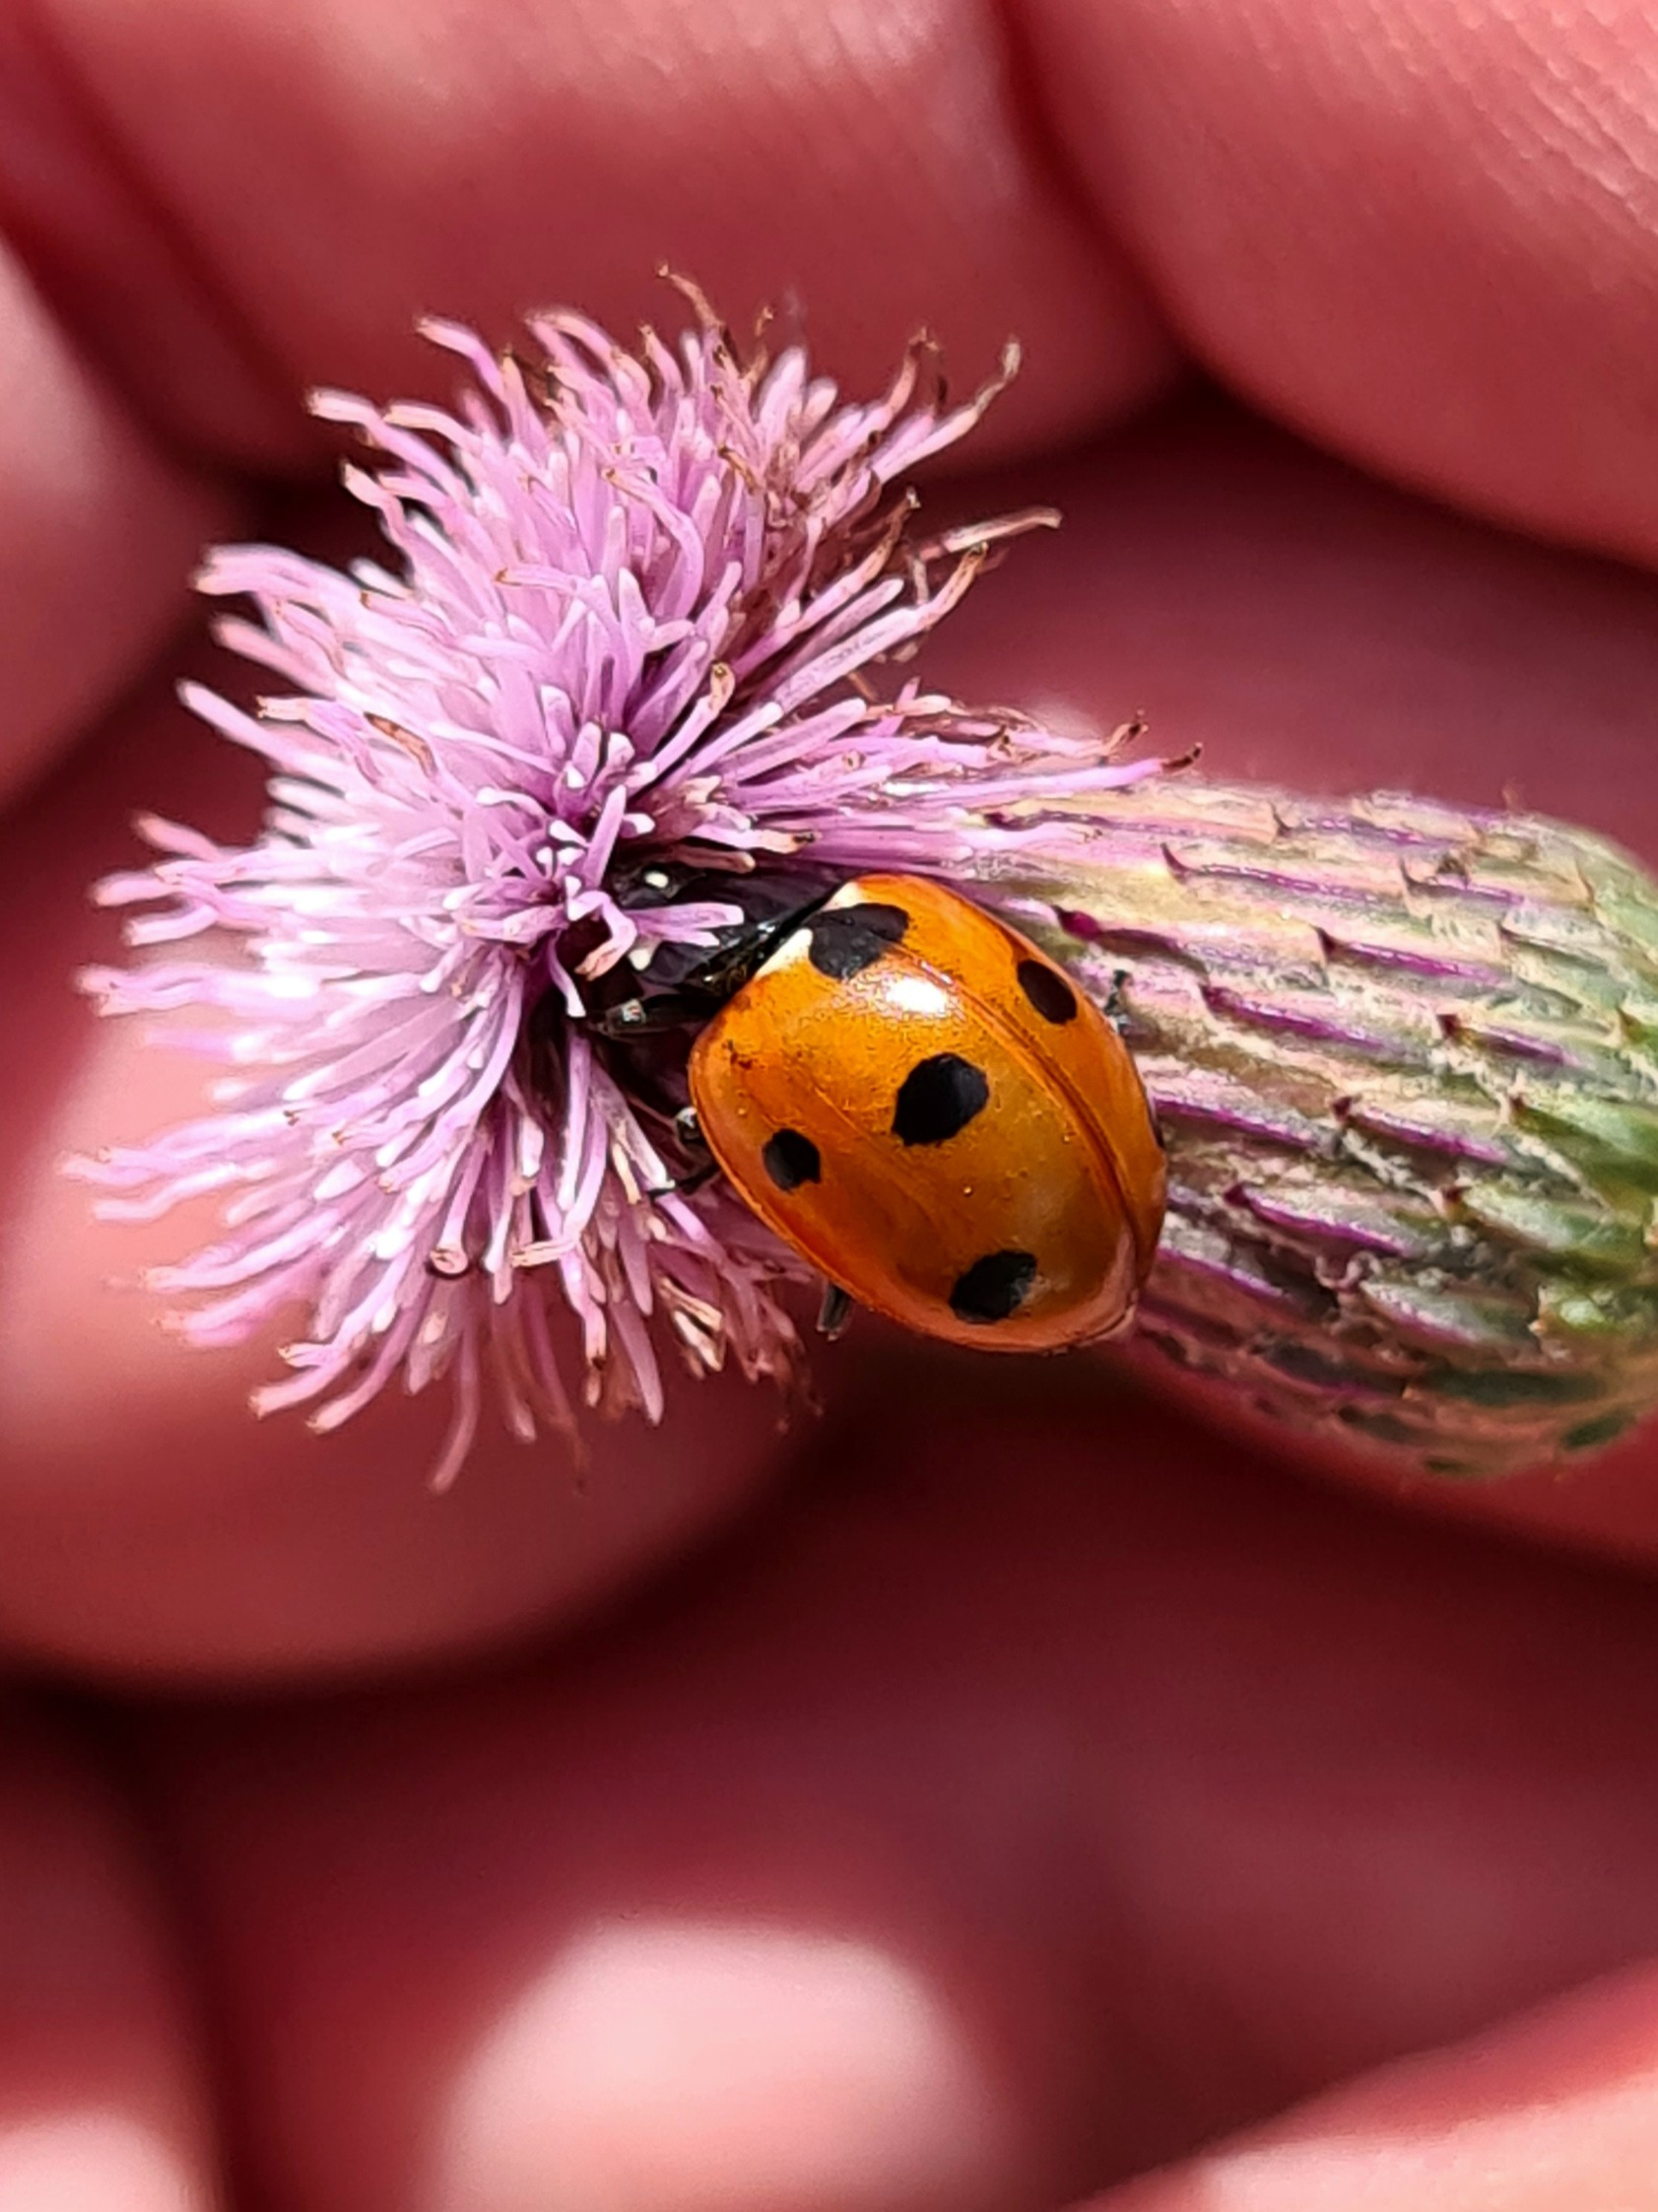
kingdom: Animalia
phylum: Arthropoda
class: Insecta
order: Coleoptera
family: Coccinellidae
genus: Coccinella
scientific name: Coccinella septempunctata
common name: Syvplettet mariehøne
